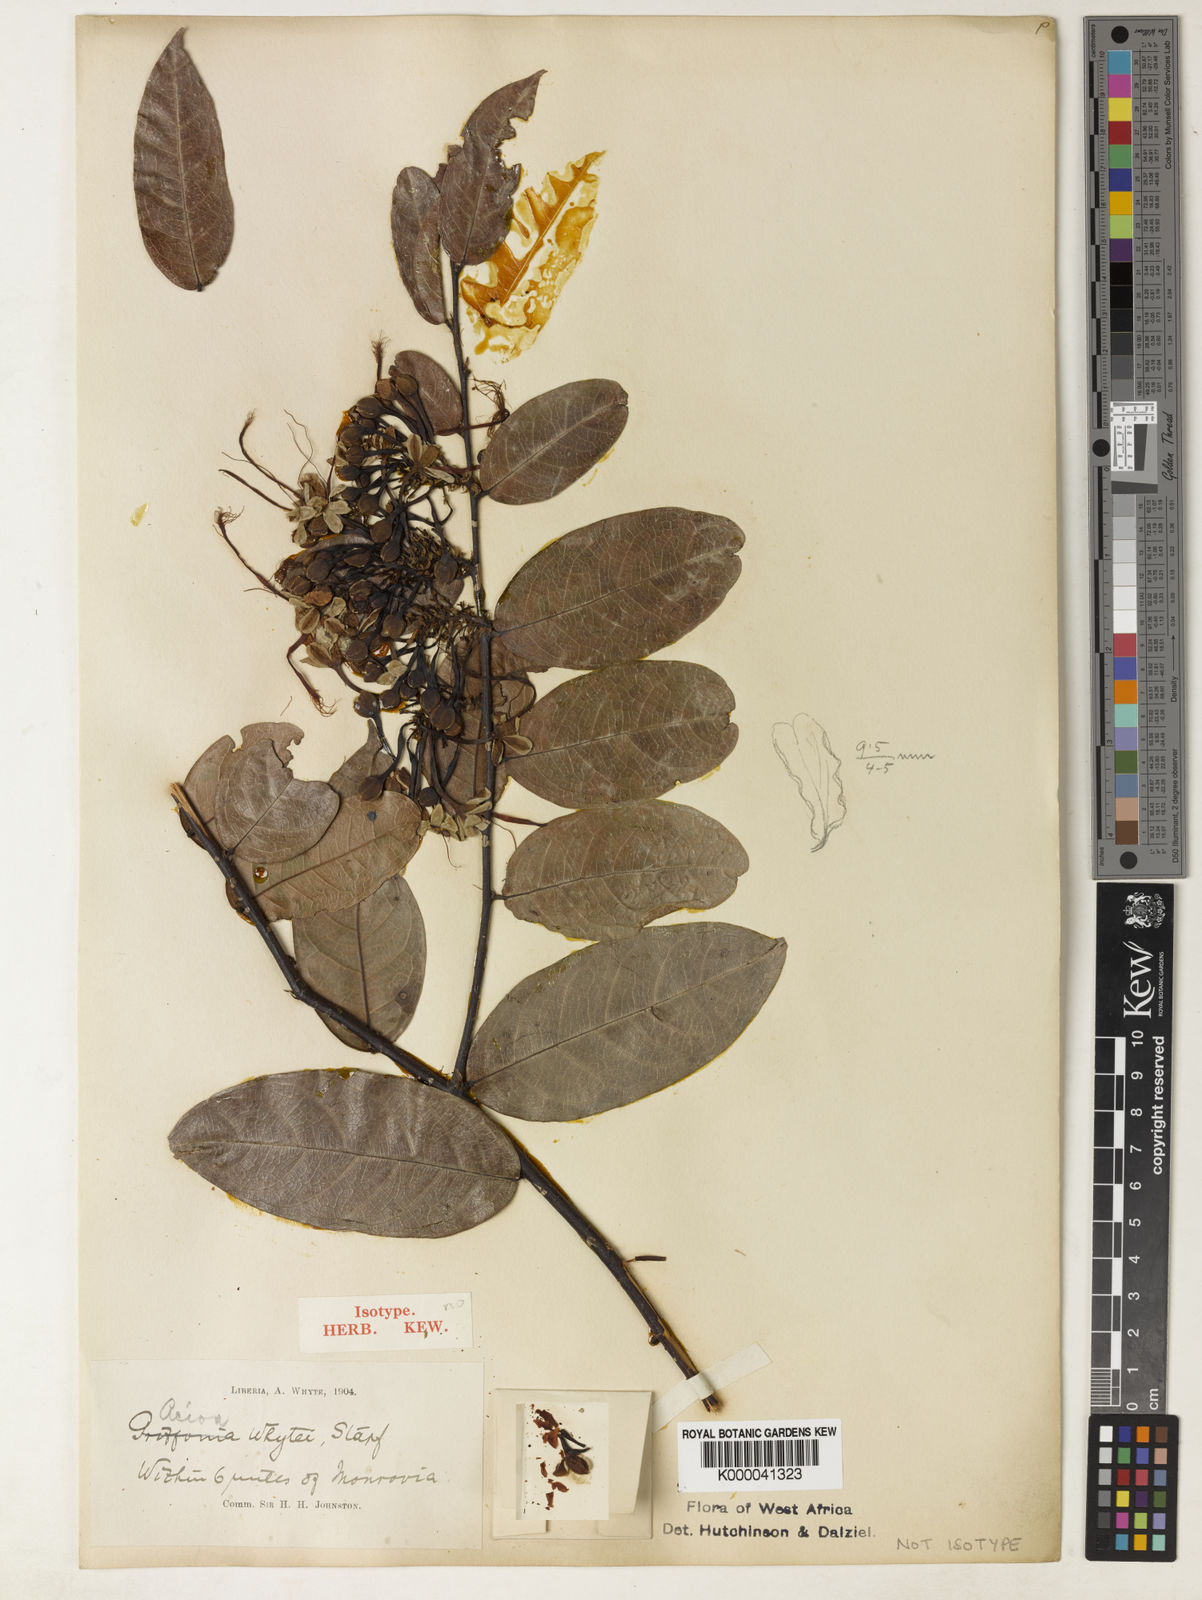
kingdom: Plantae
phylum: Tracheophyta
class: Magnoliopsida
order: Malpighiales
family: Chrysobalanaceae
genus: Dactyladenia
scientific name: Dactyladenia whytei
